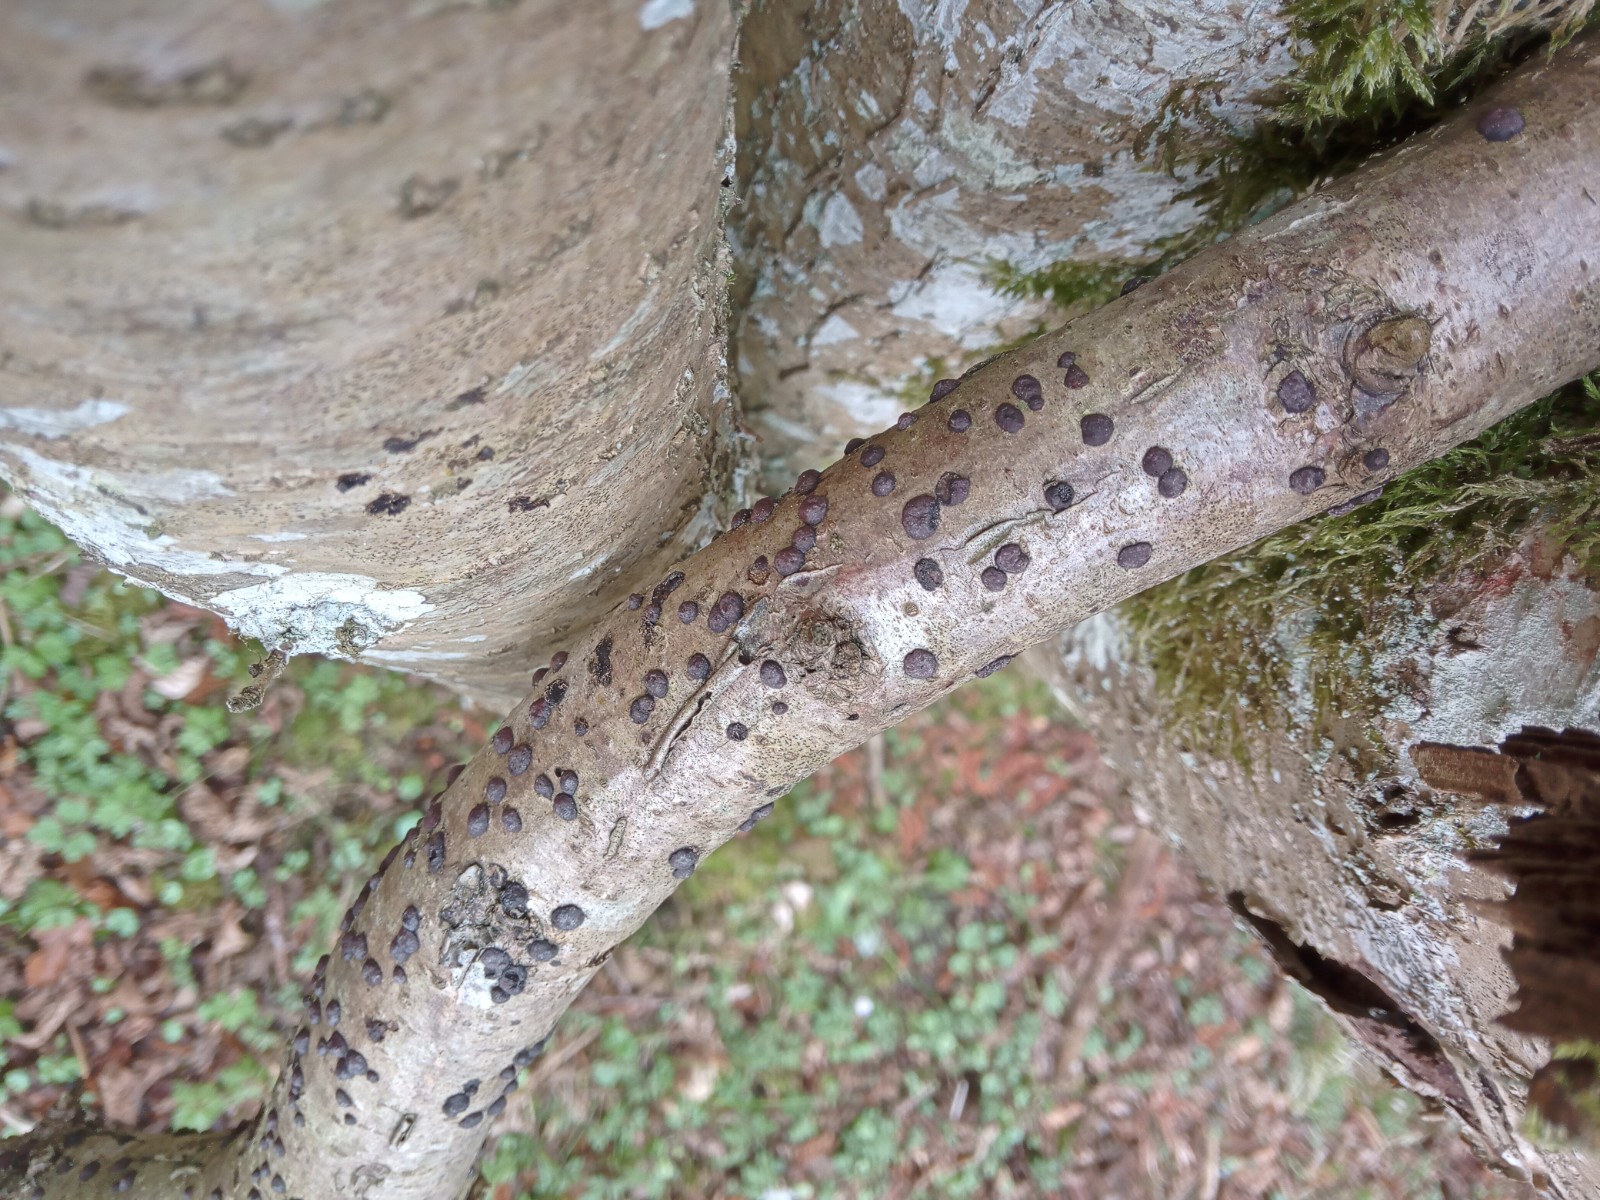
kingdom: Fungi
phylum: Ascomycota
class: Sordariomycetes
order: Xylariales
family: Hypoxylaceae
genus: Hypoxylon
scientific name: Hypoxylon fuscum
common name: kegleformet kulbær
